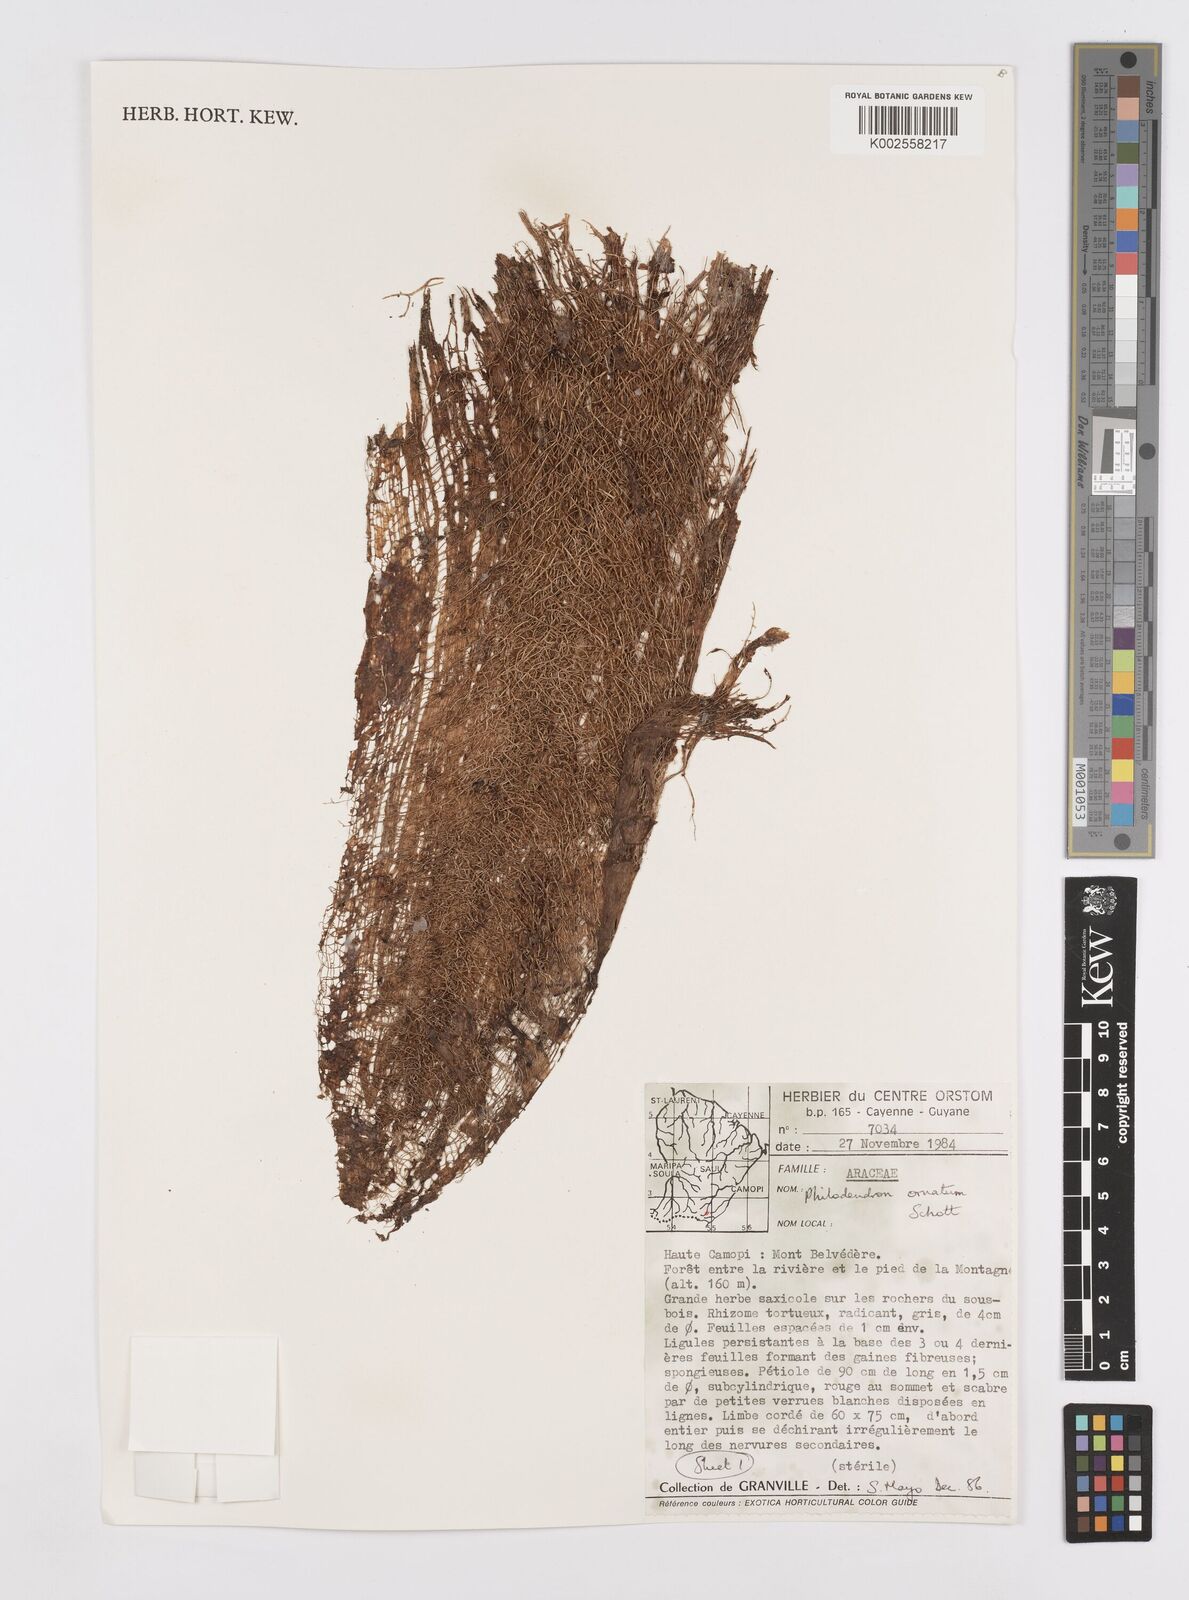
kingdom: Plantae
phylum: Tracheophyta
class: Liliopsida
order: Alismatales
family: Araceae
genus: Philodendron
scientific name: Philodendron ornatum
